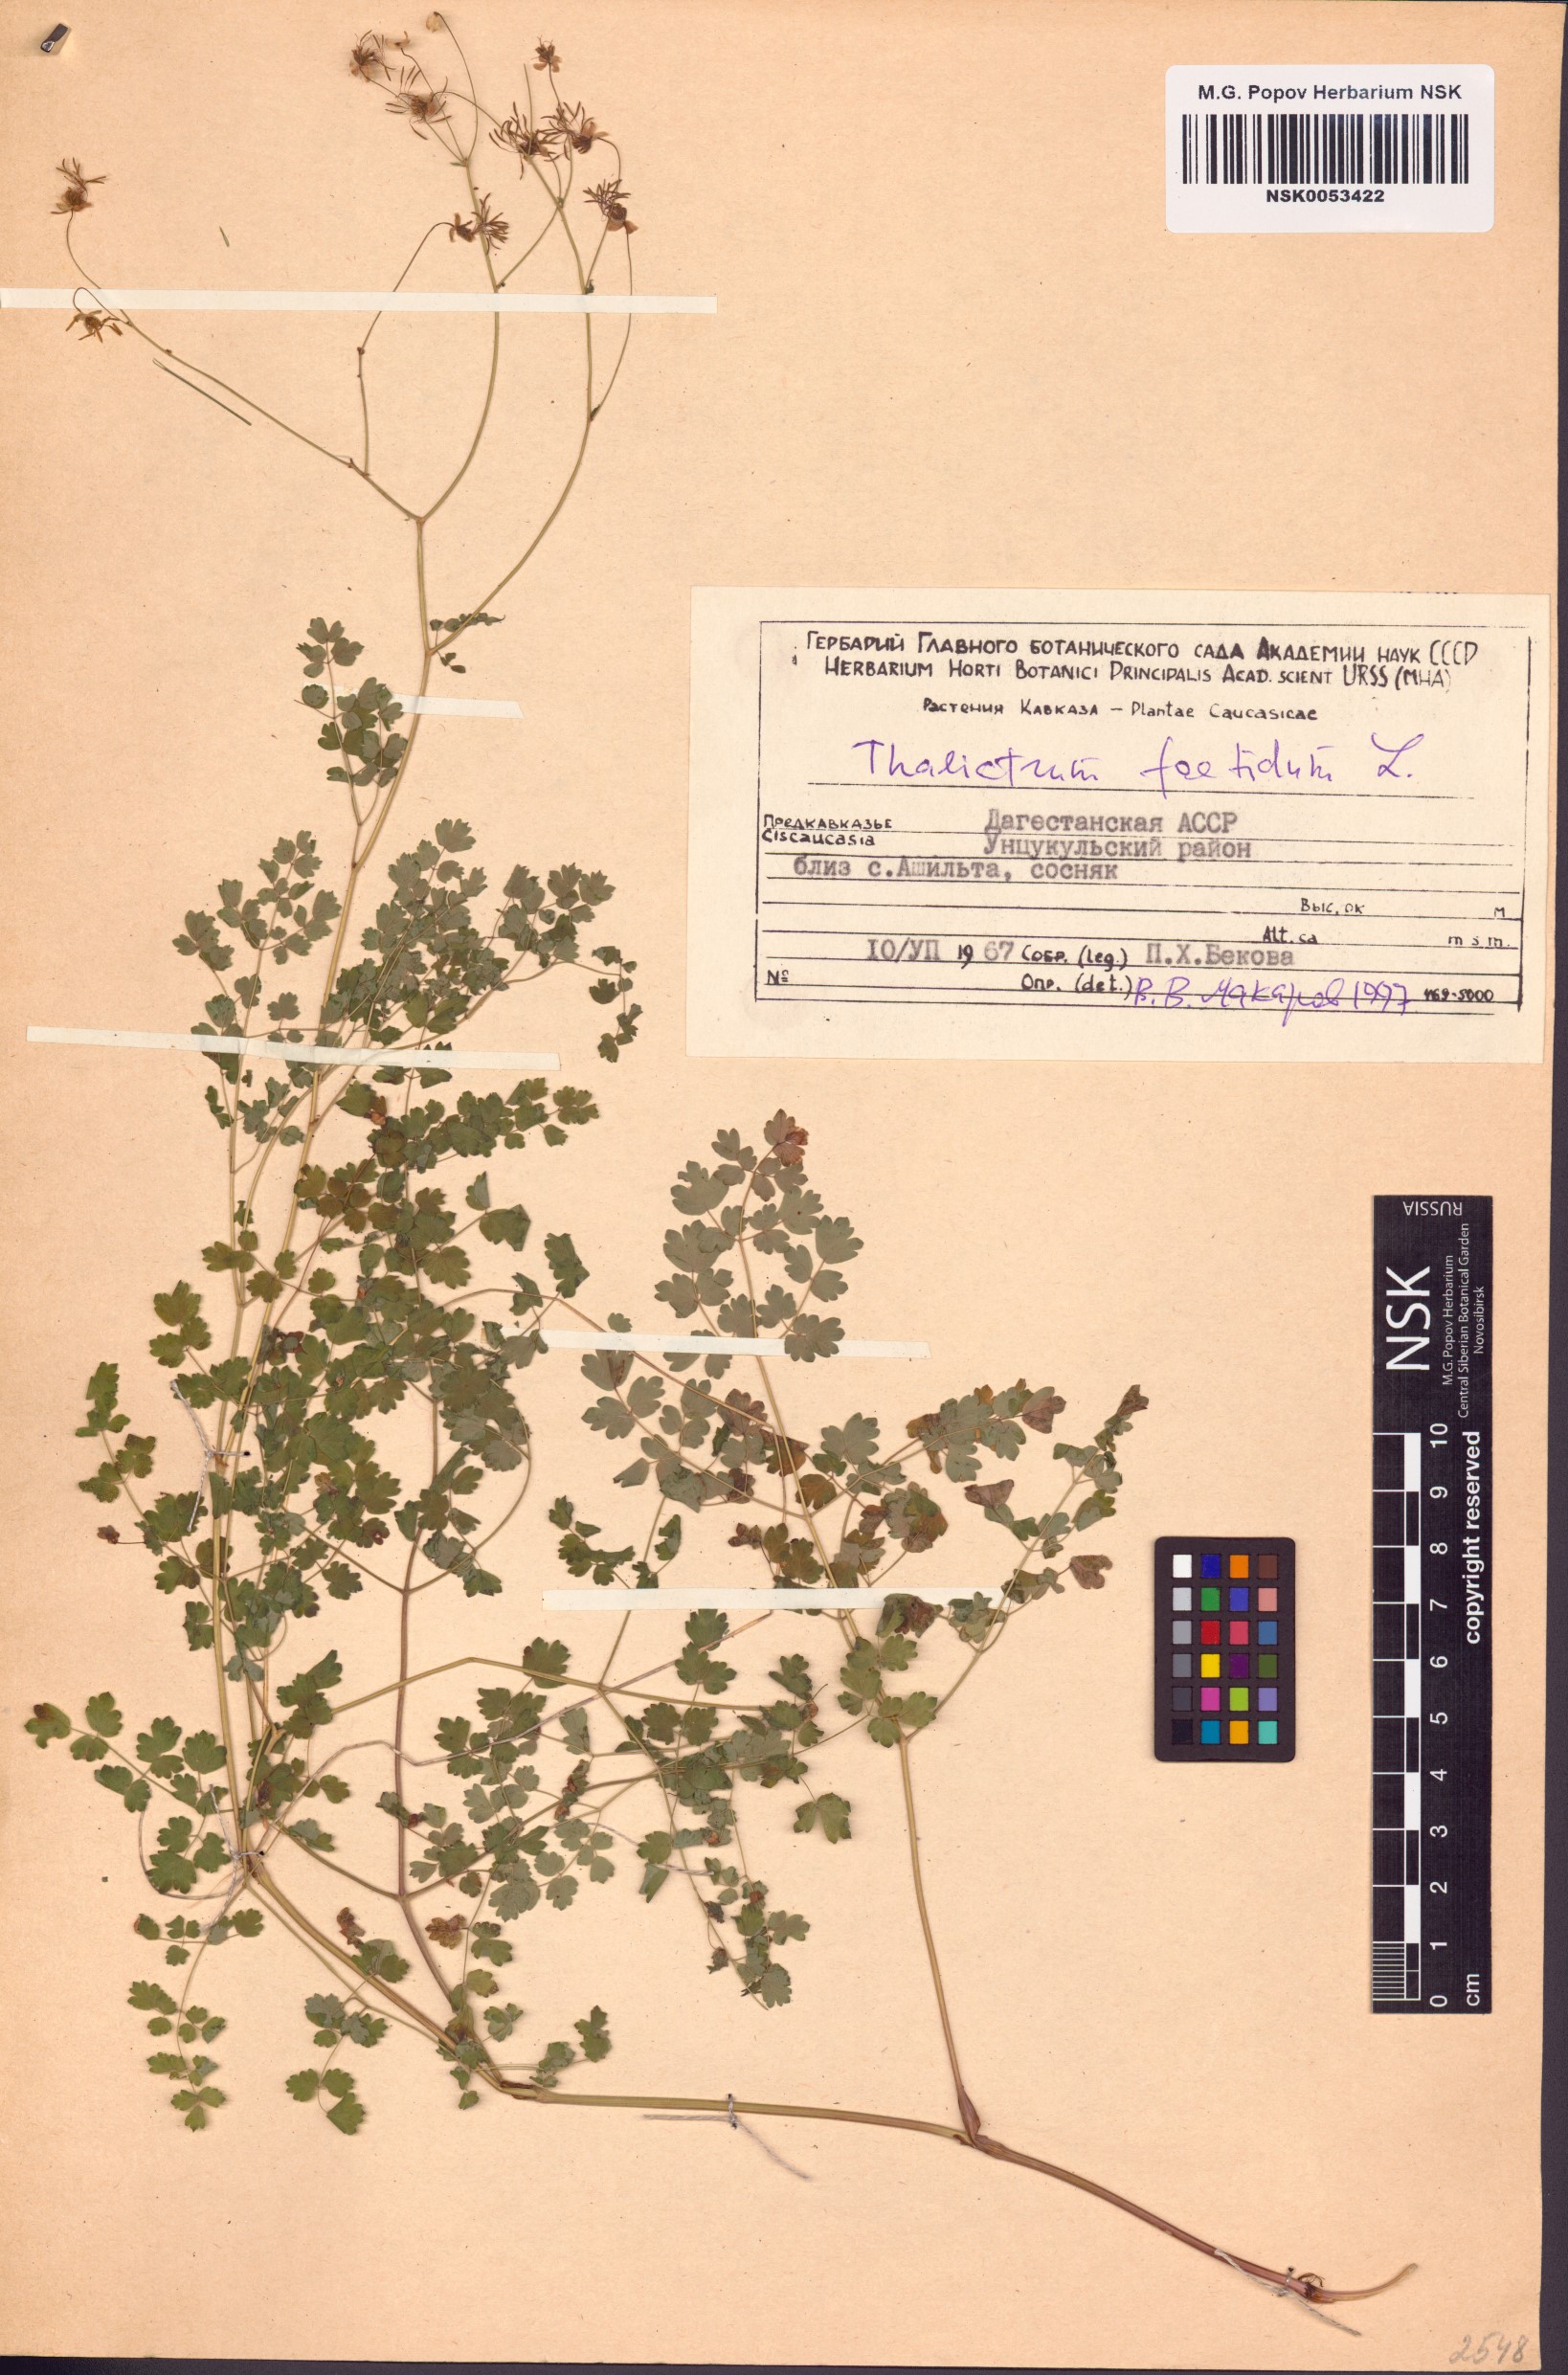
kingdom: Plantae
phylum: Tracheophyta
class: Magnoliopsida
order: Ranunculales
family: Ranunculaceae
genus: Thalictrum
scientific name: Thalictrum foetidum
